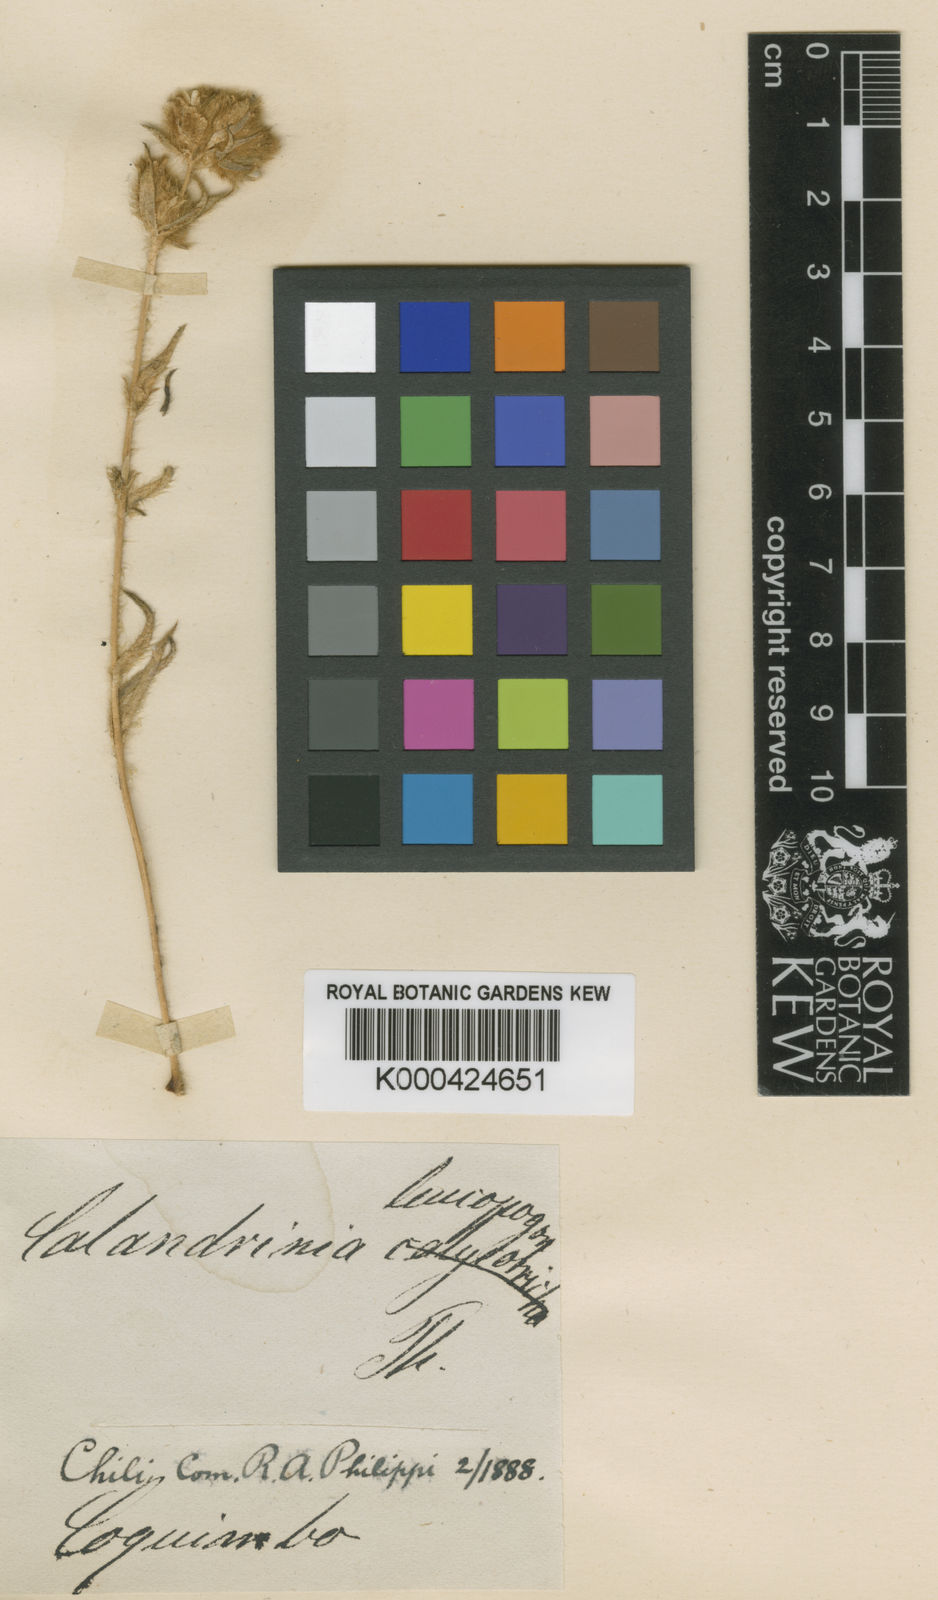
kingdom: Plantae
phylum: Tracheophyta
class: Magnoliopsida
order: Caryophyllales
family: Montiaceae
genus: Montiopsis
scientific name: Montiopsis capitata
